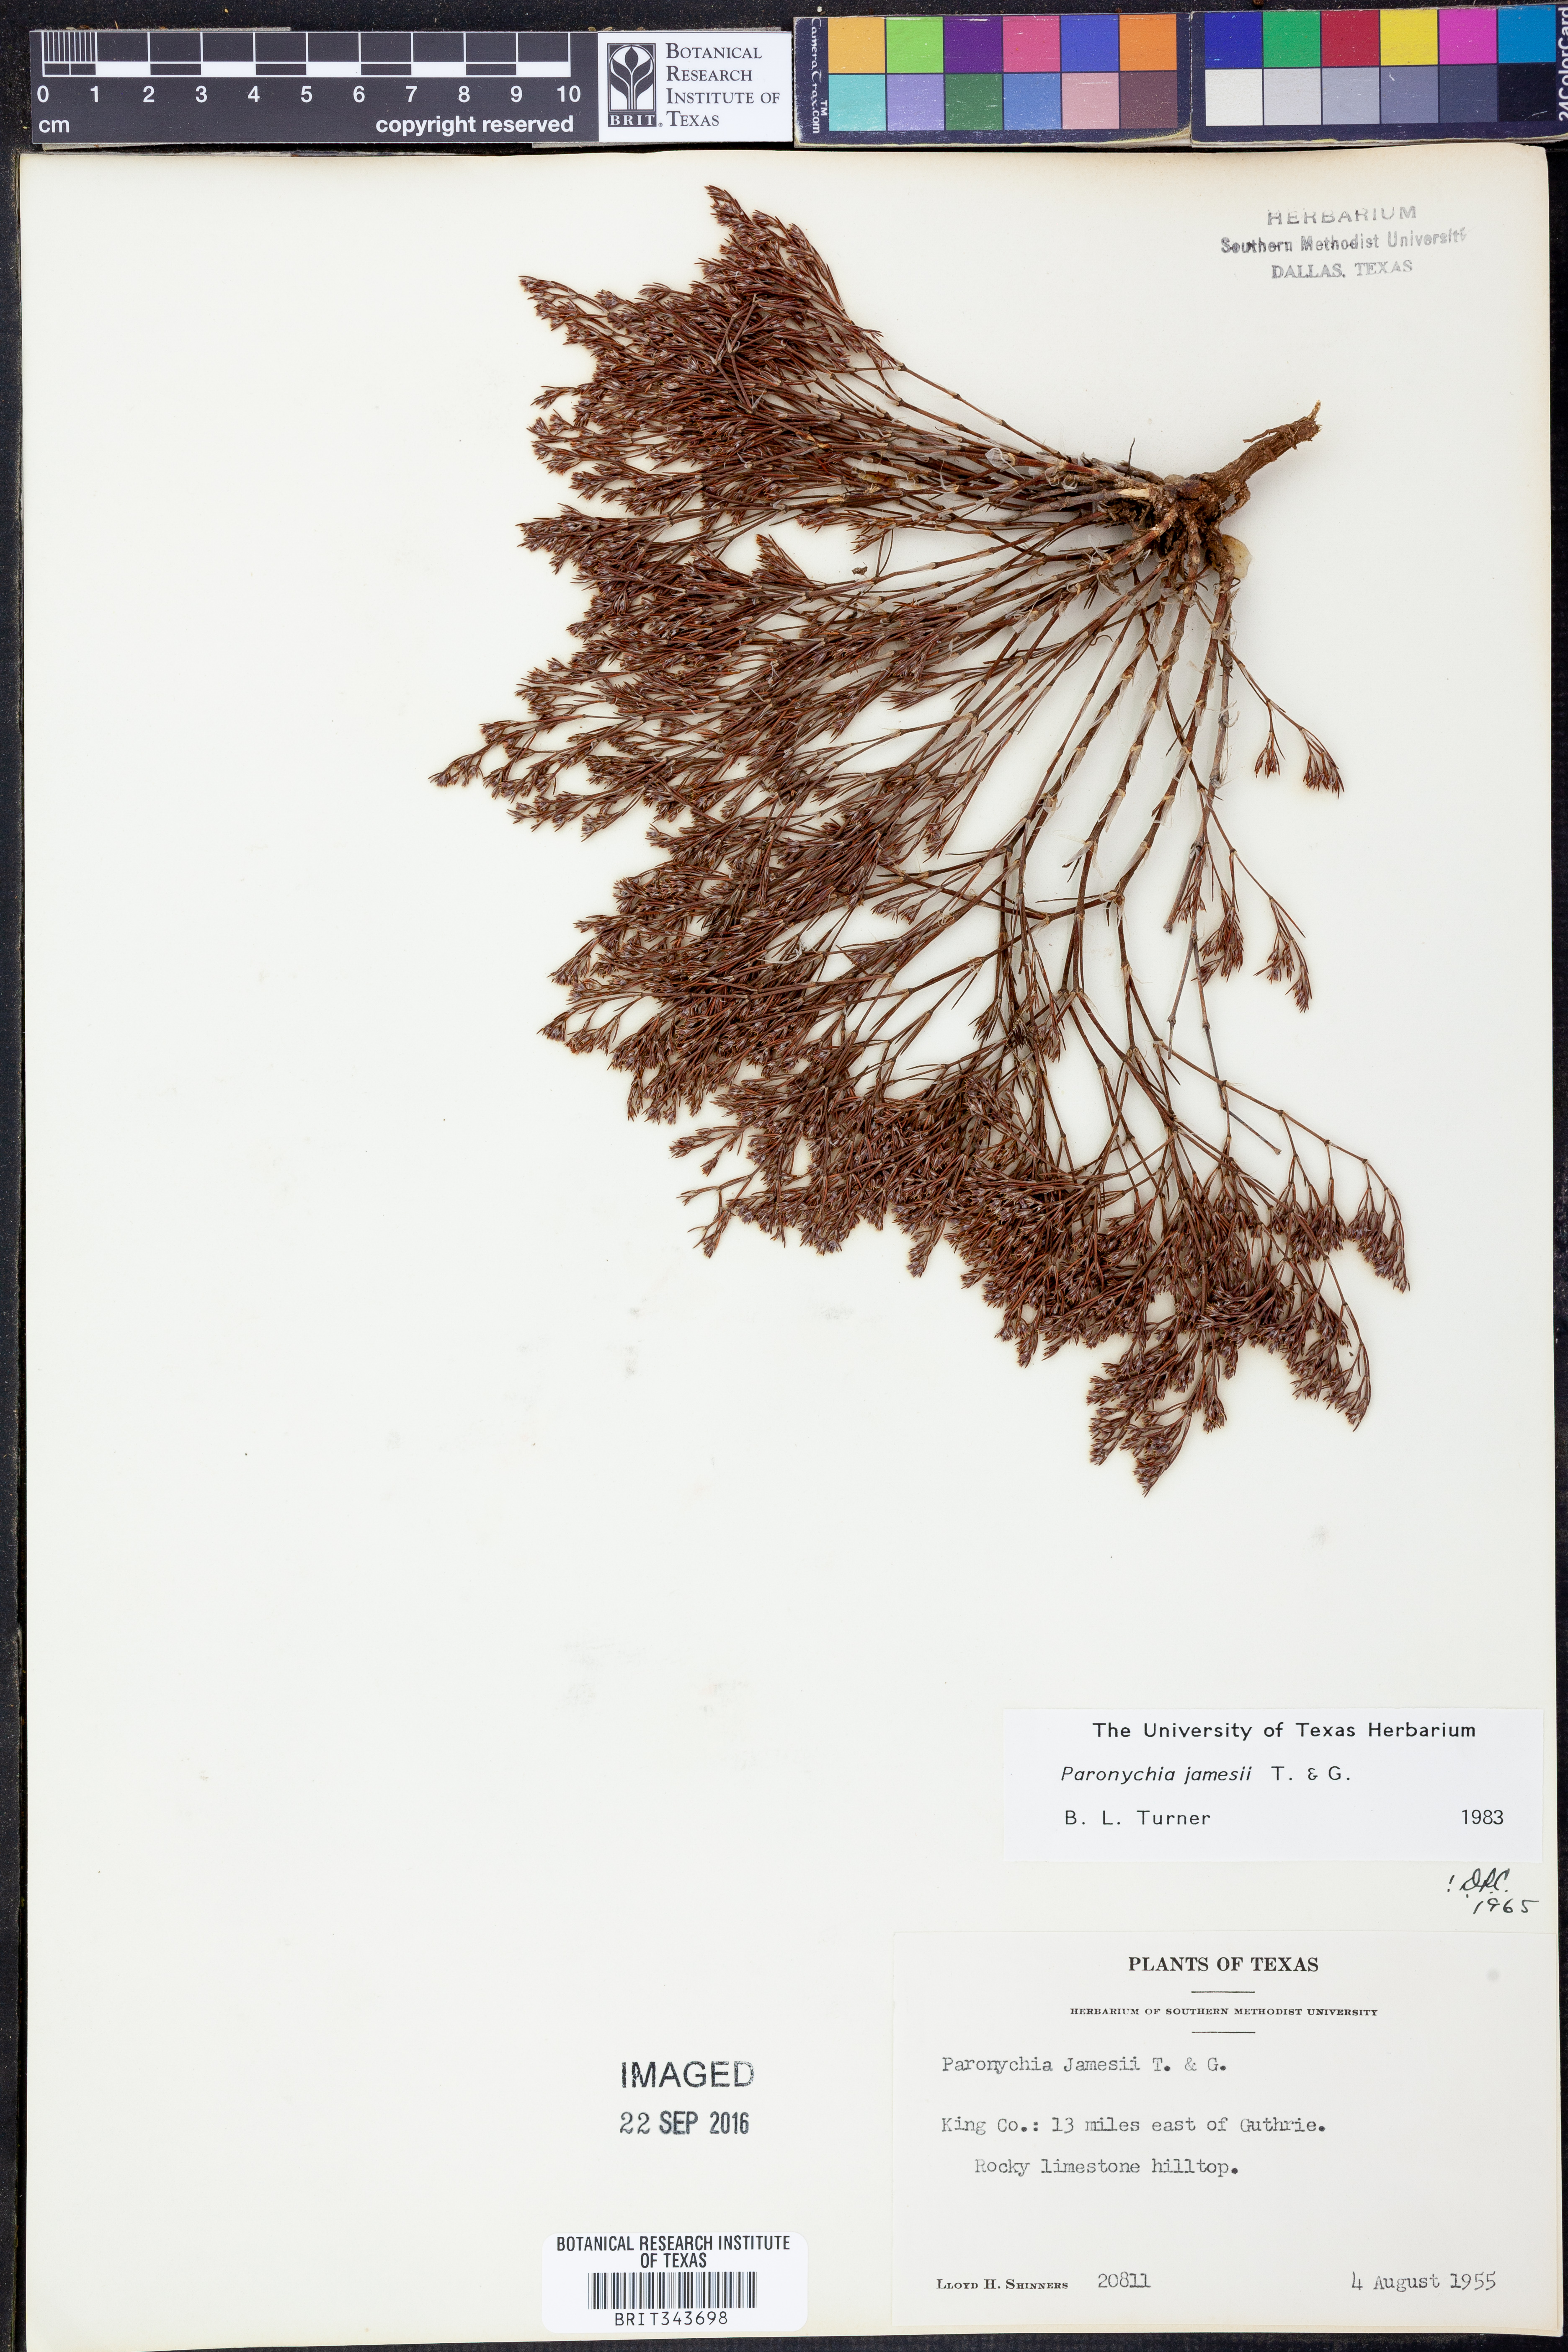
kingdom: Plantae
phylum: Tracheophyta
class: Magnoliopsida
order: Caryophyllales
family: Caryophyllaceae
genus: Paronychia
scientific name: Paronychia jamesii
